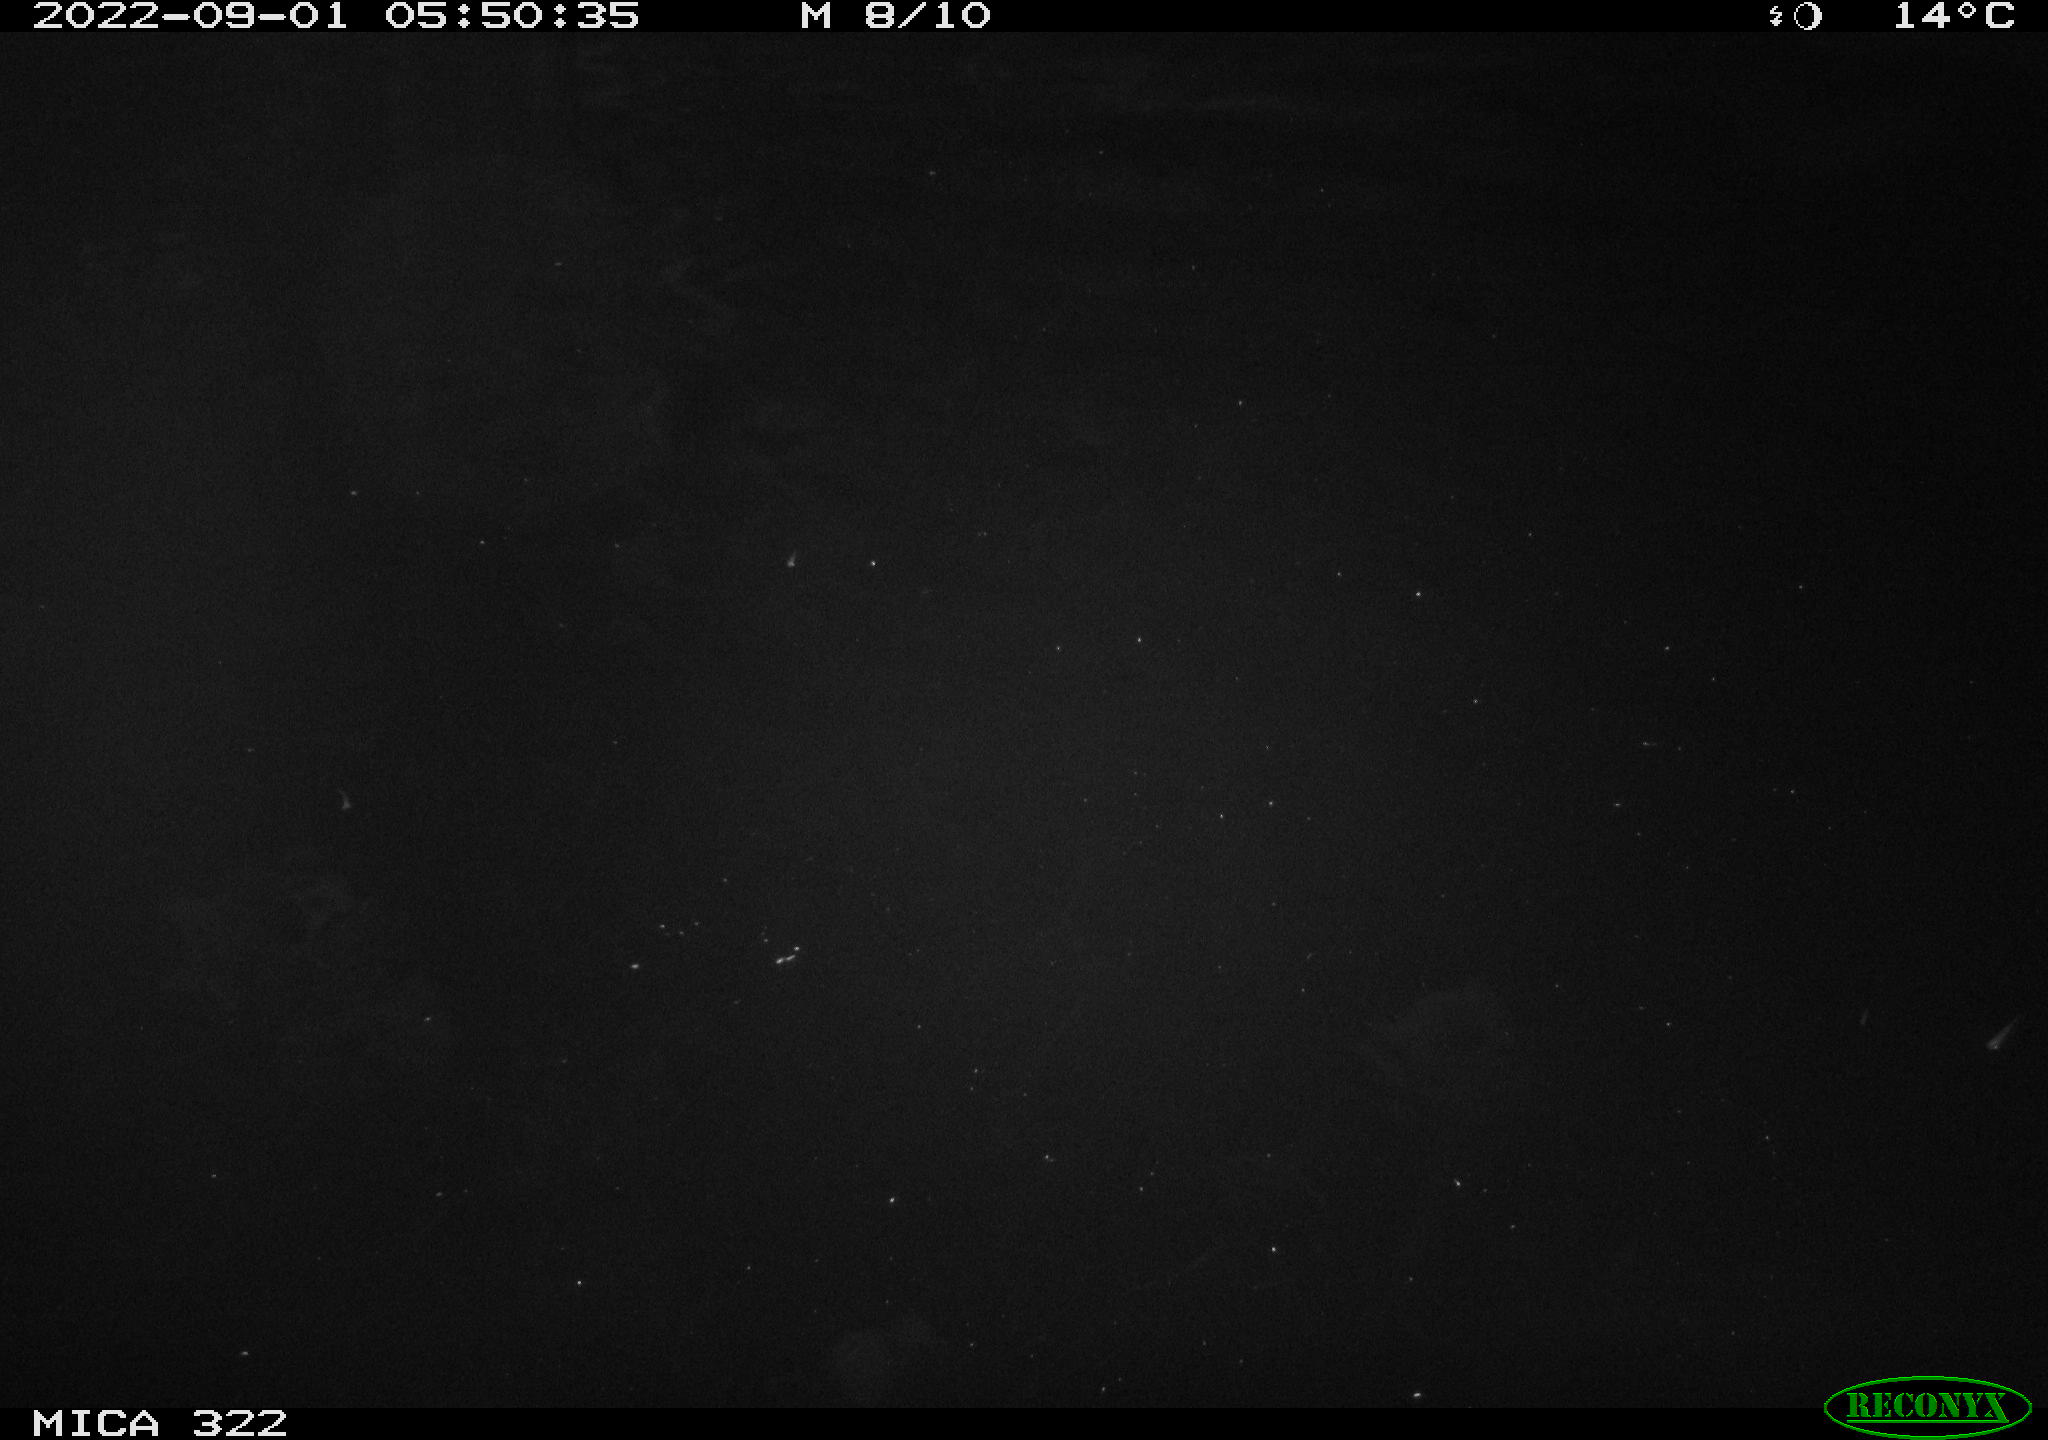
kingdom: Animalia
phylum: Chordata
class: Mammalia
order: Rodentia
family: Muridae
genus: Rattus
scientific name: Rattus norvegicus
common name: Brown rat
